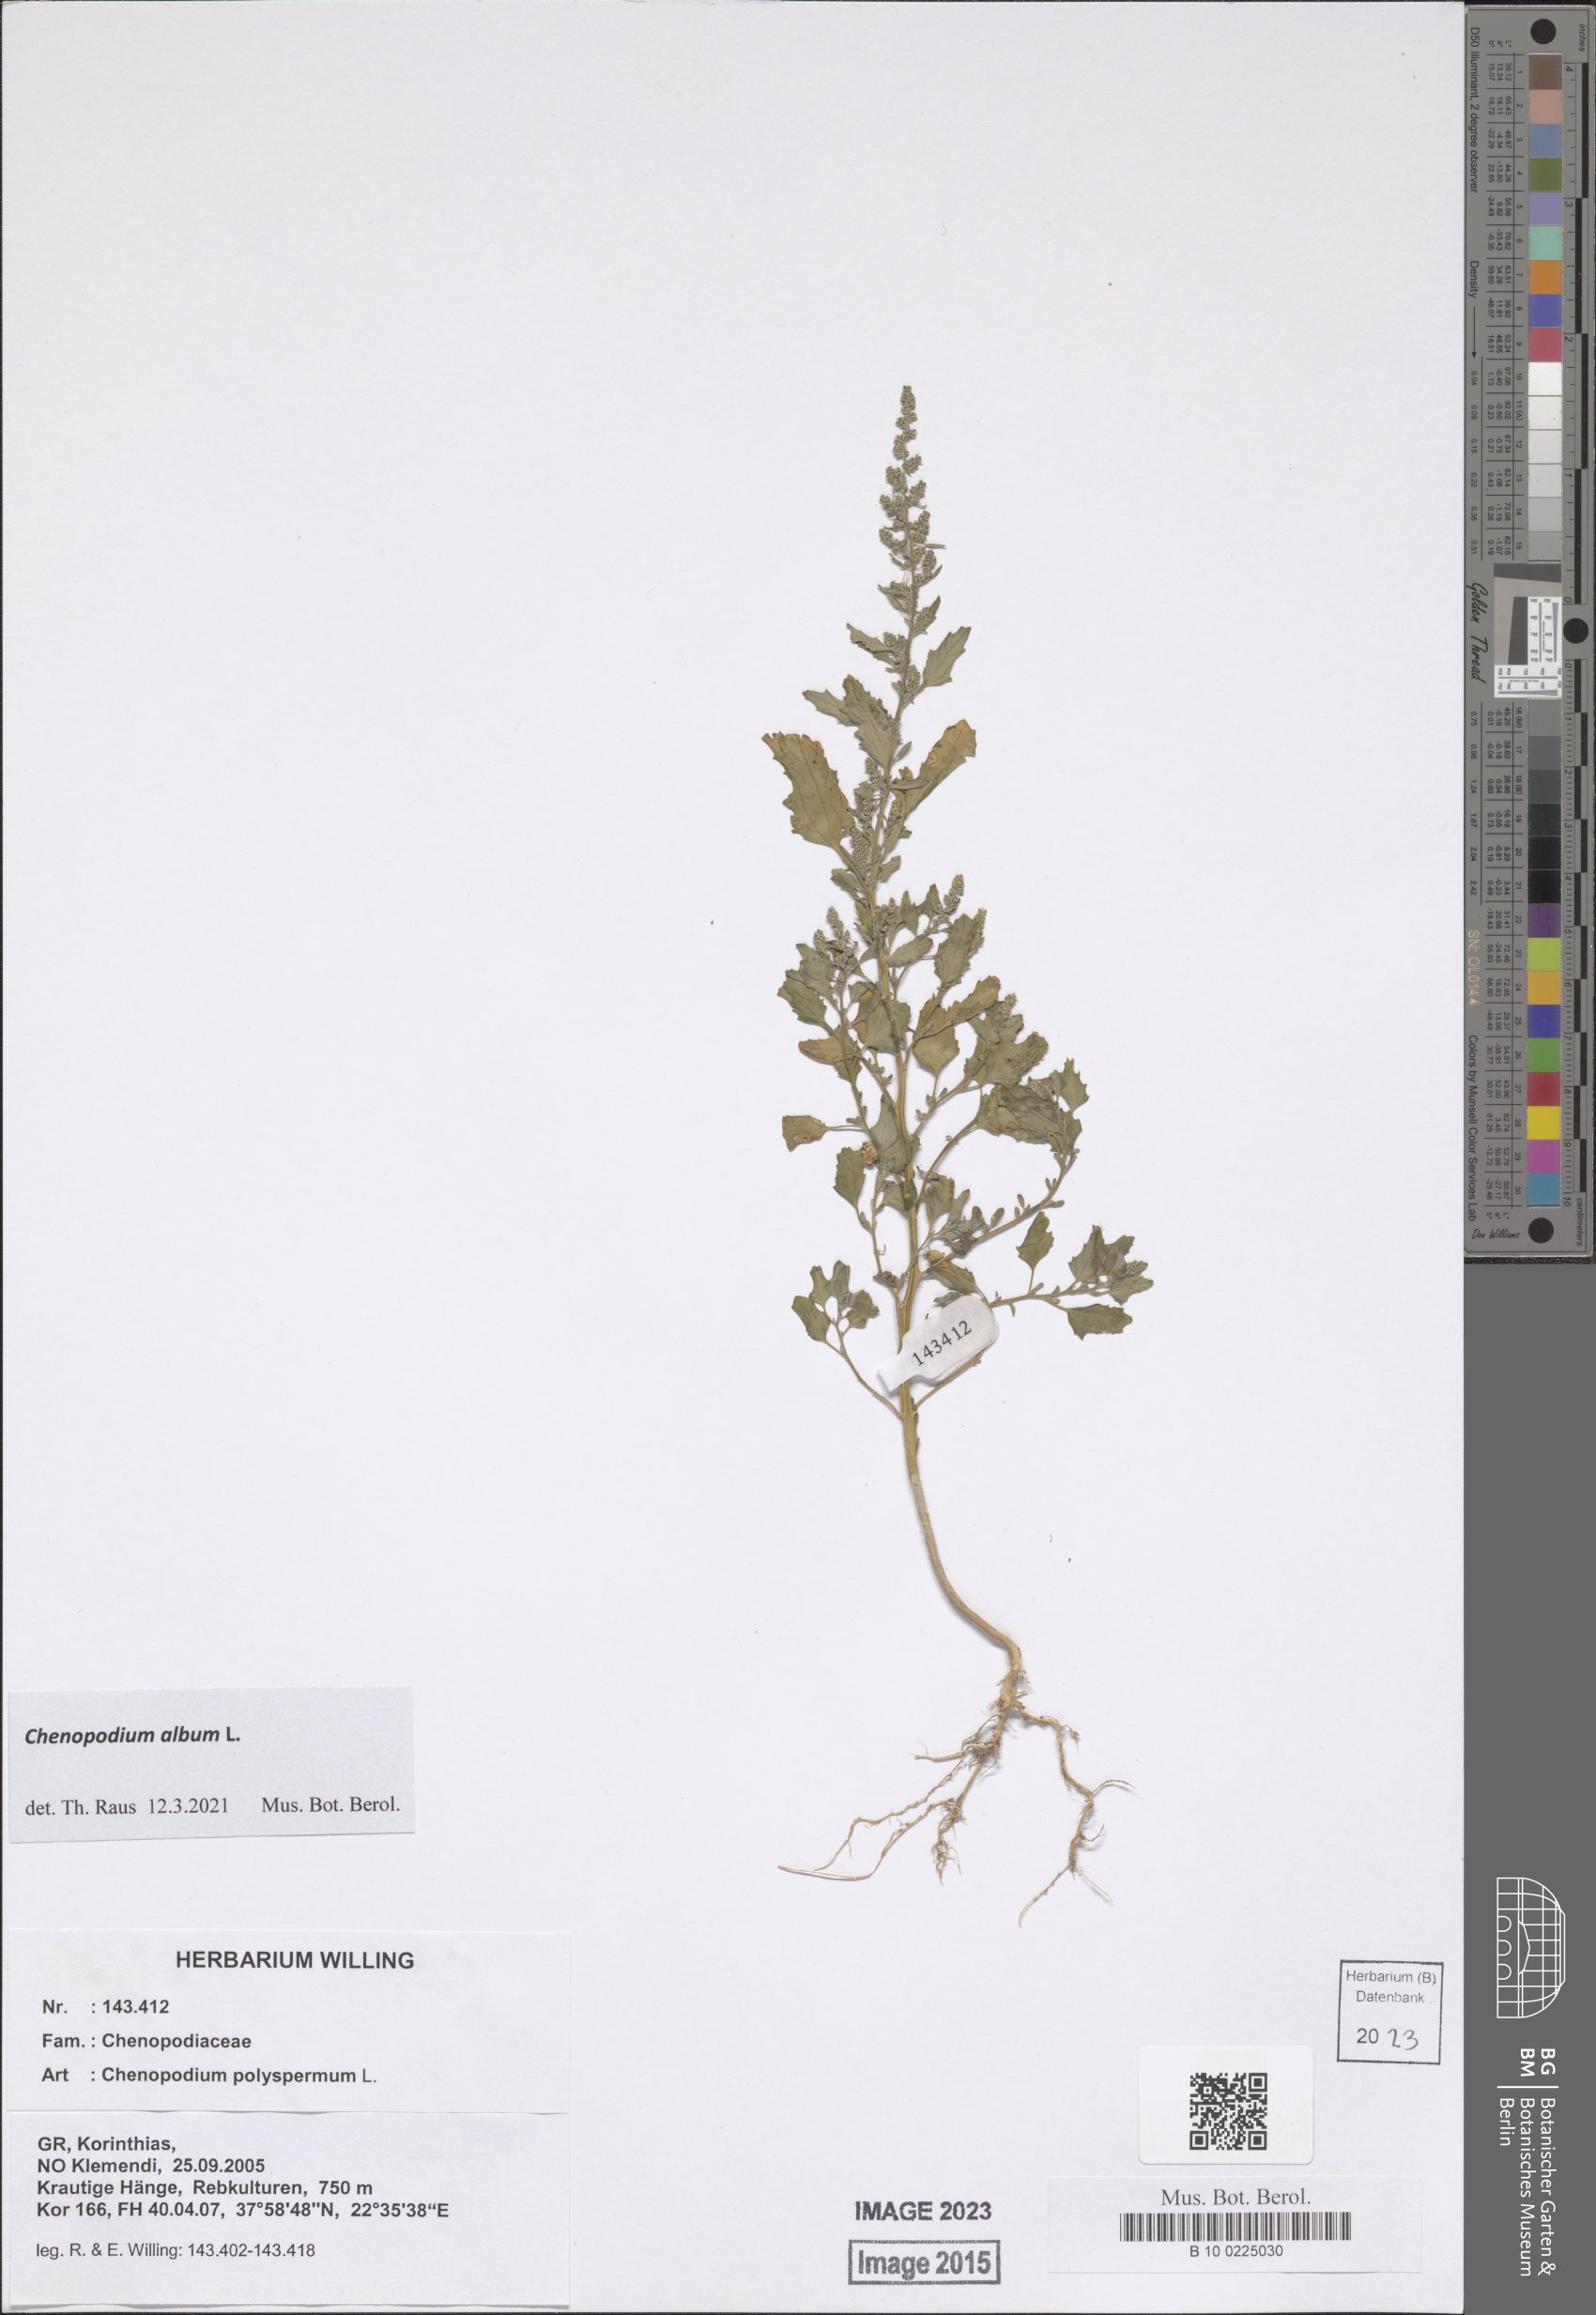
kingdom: Plantae
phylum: Tracheophyta
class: Magnoliopsida
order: Caryophyllales
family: Amaranthaceae
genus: Chenopodium
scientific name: Chenopodium album
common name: Fat-hen
